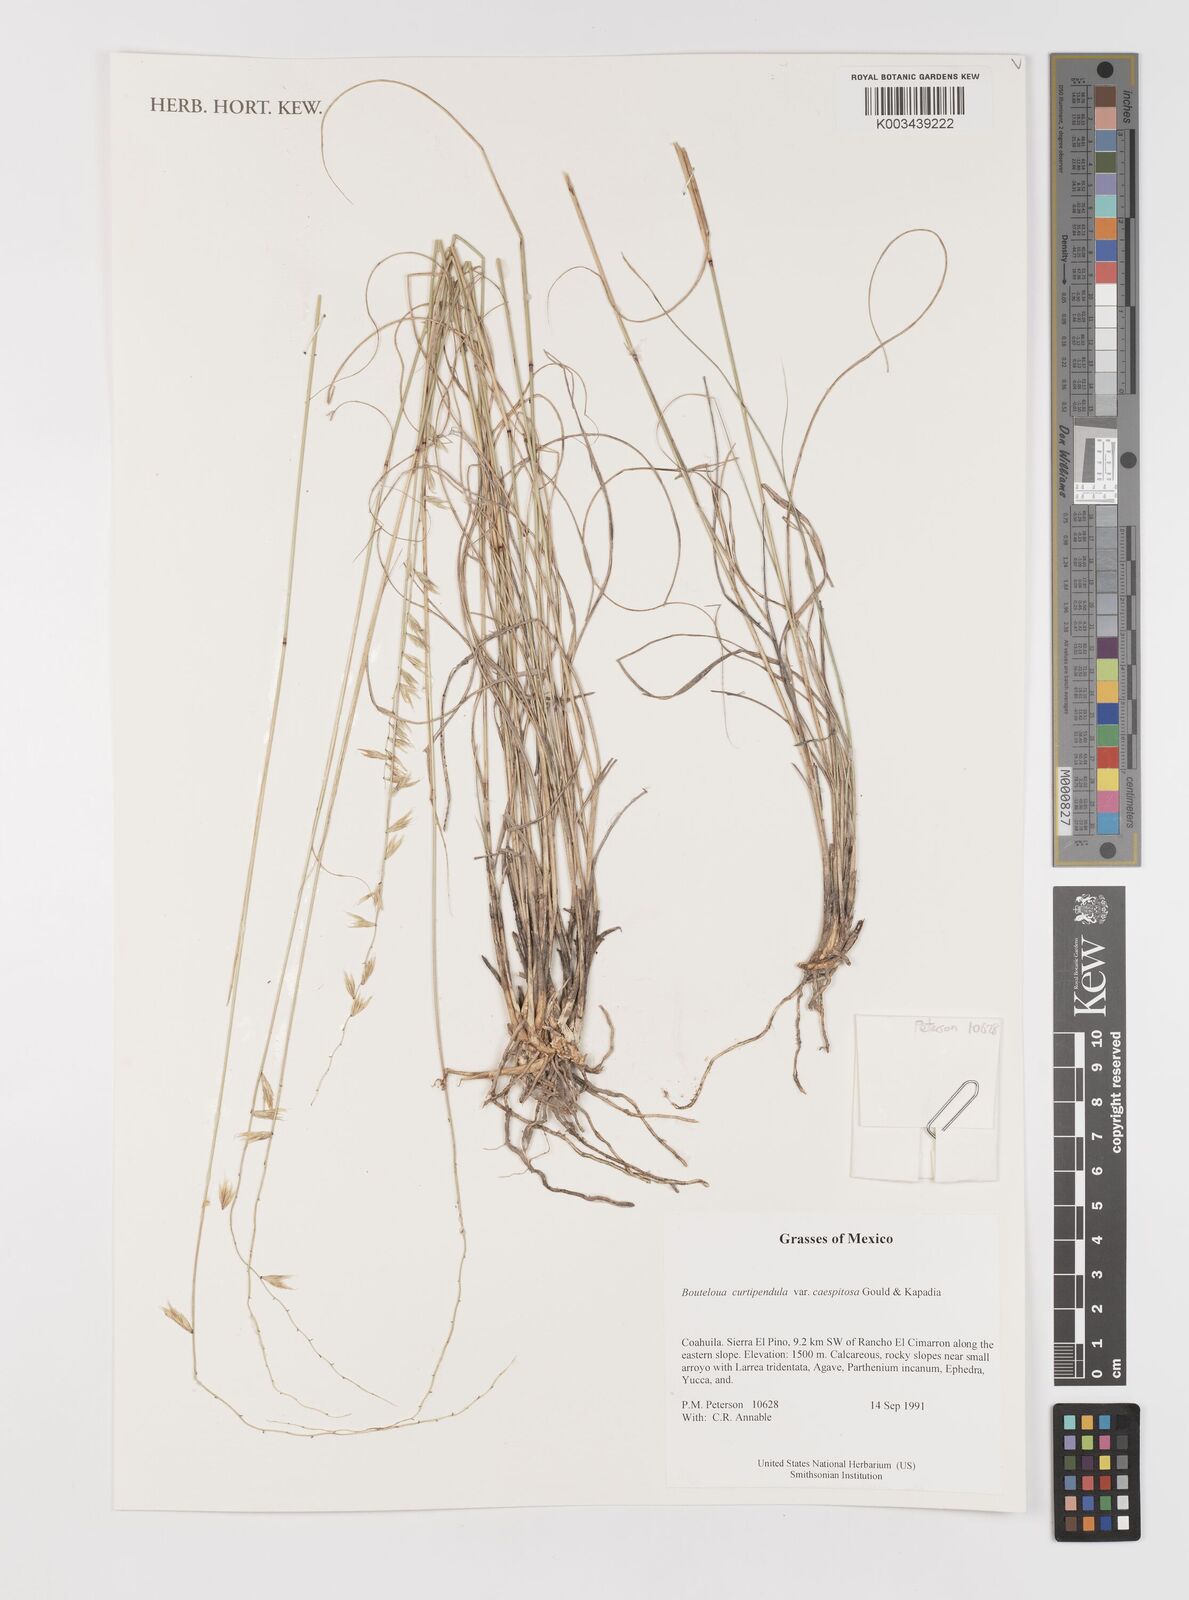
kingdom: Plantae
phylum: Tracheophyta
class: Liliopsida
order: Poales
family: Poaceae
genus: Bouteloua
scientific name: Bouteloua curtipendula
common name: Side-oats grama
